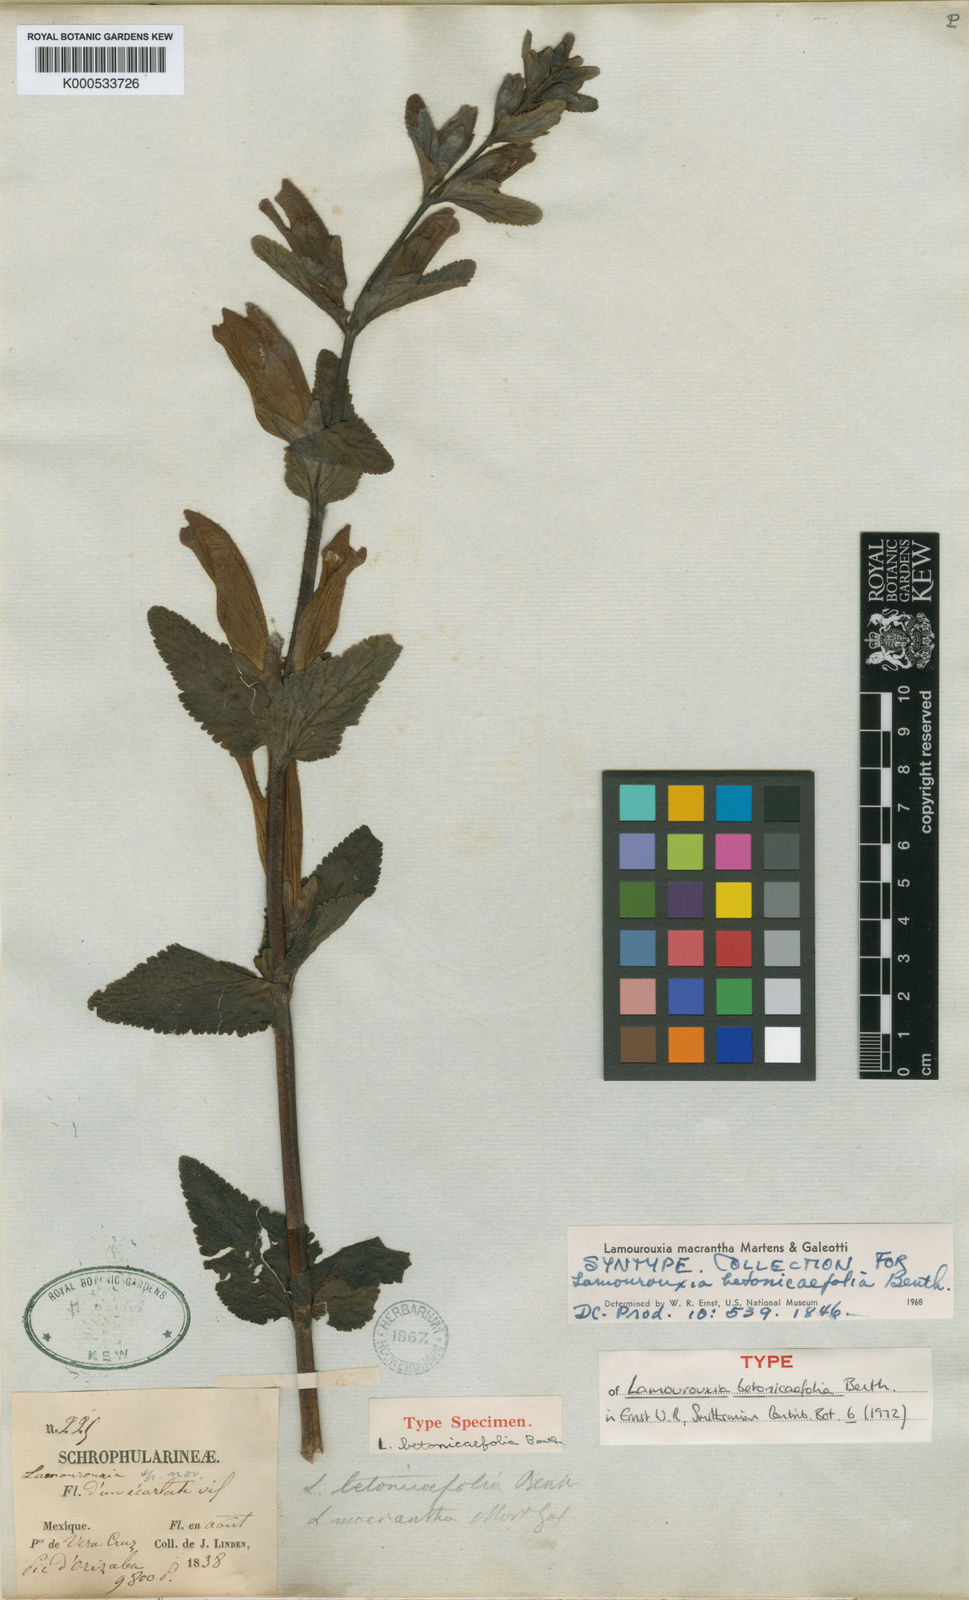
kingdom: Plantae
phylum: Tracheophyta
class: Magnoliopsida
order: Lamiales
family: Orobanchaceae
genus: Lamourouxia
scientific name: Lamourouxia macrantha
